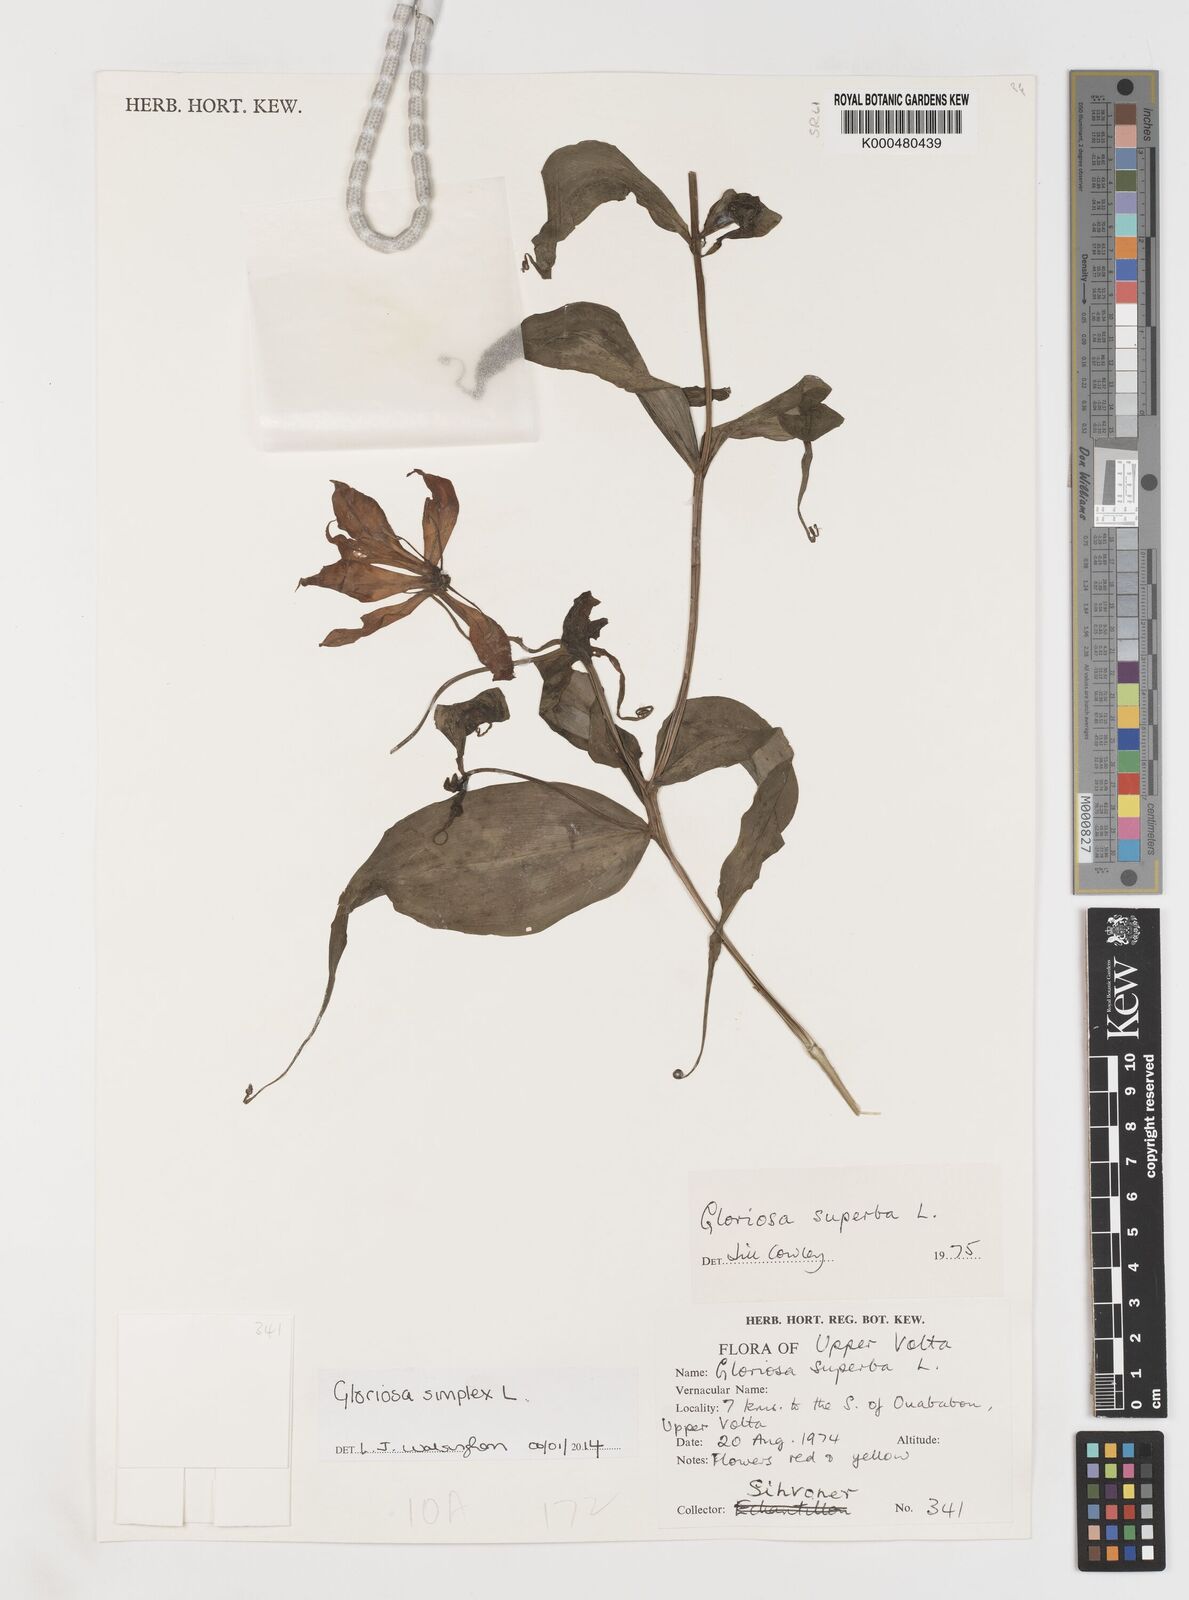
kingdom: Plantae
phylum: Tracheophyta
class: Liliopsida
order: Liliales
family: Colchicaceae
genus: Gloriosa
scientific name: Gloriosa simplex
